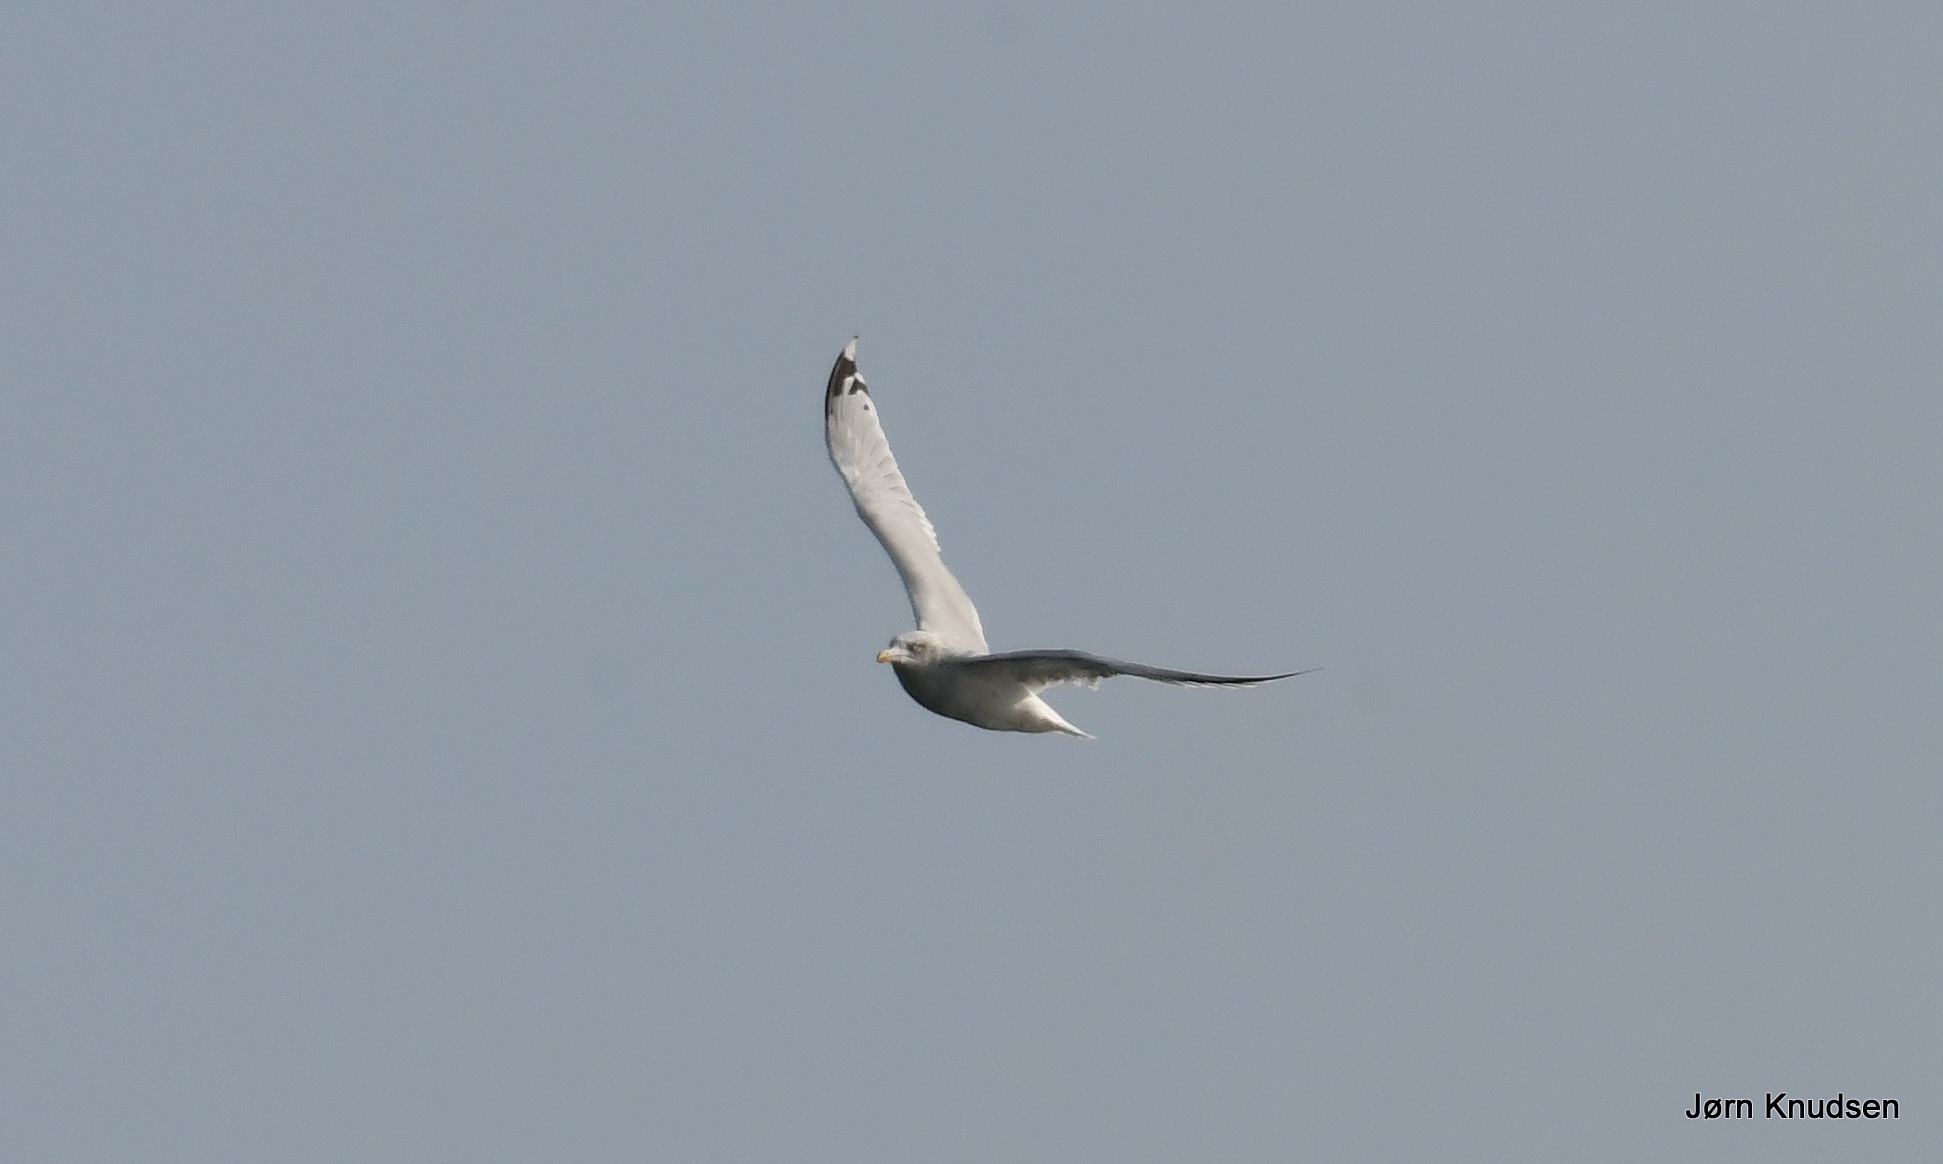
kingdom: Animalia
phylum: Chordata
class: Aves
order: Charadriiformes
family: Laridae
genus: Larus
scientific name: Larus argentatus
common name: Sølvmåge
